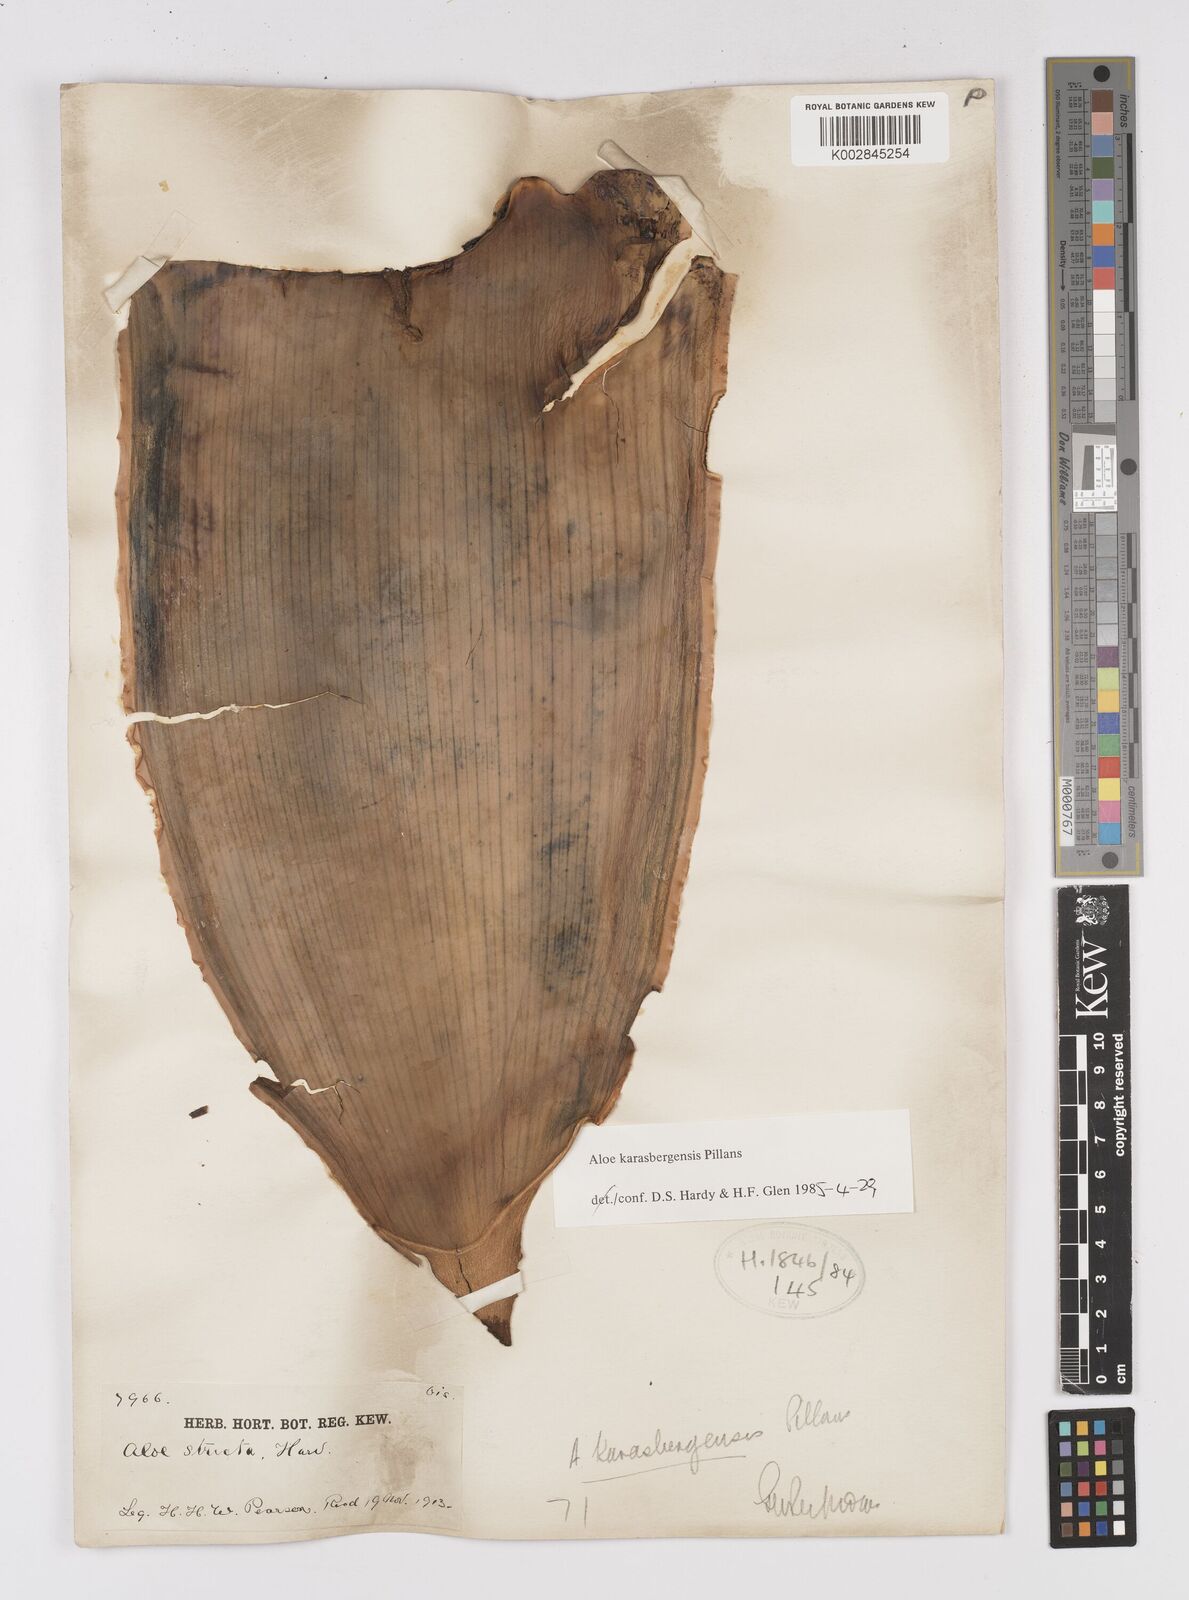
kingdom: Plantae
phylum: Tracheophyta
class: Liliopsida
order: Asparagales
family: Asphodelaceae
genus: Aloe
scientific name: Aloe karasbergensis
